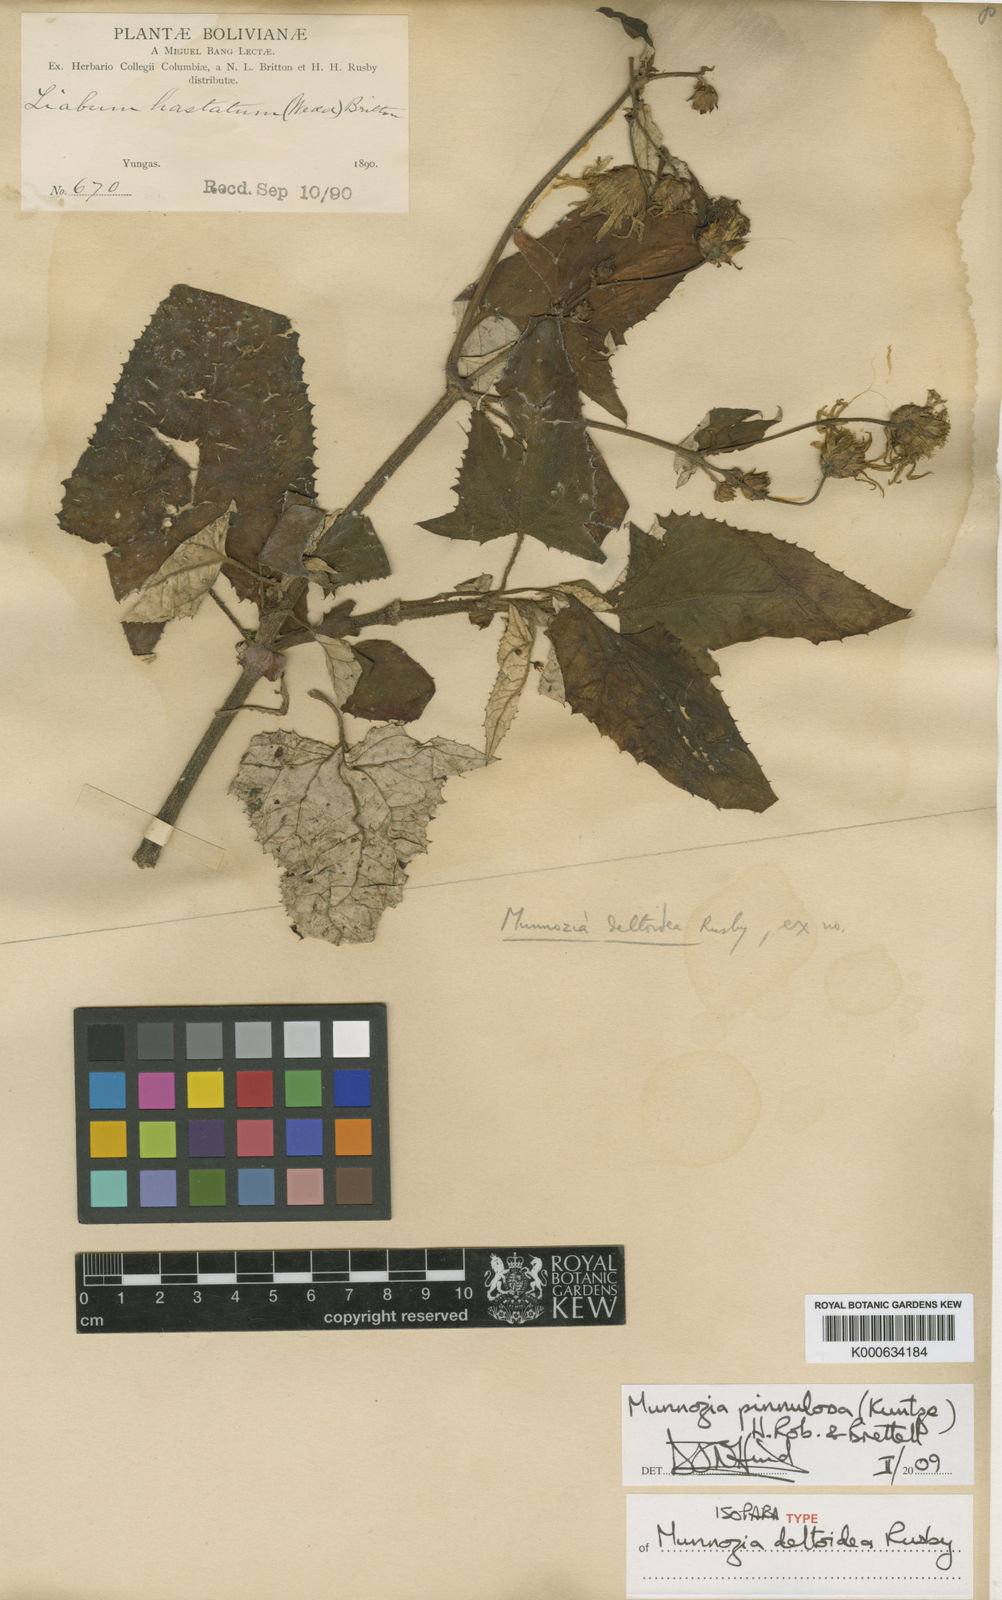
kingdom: Plantae
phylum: Tracheophyta
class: Magnoliopsida
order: Asterales
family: Asteraceae
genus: Munnozia
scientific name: Munnozia pinnulosa
